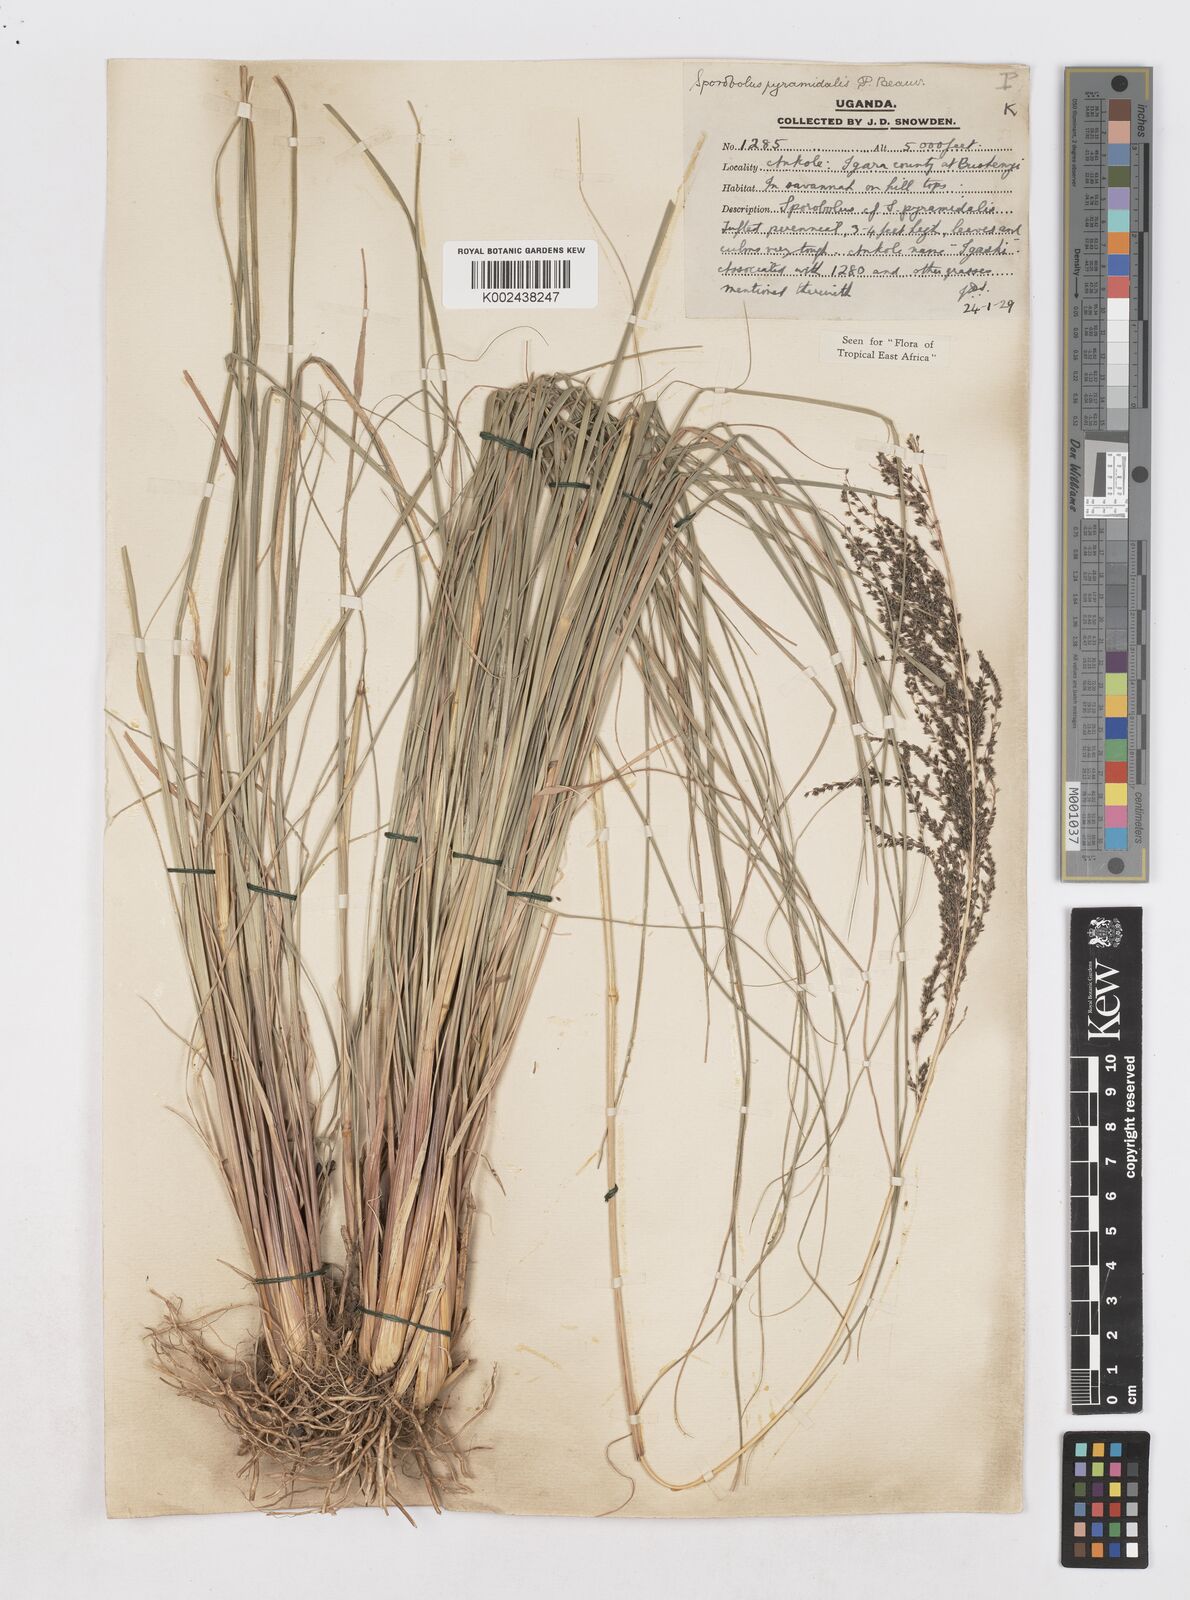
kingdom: Plantae
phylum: Tracheophyta
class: Liliopsida
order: Poales
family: Poaceae
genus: Sporobolus
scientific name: Sporobolus pyramidalis
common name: West indian dropseed
